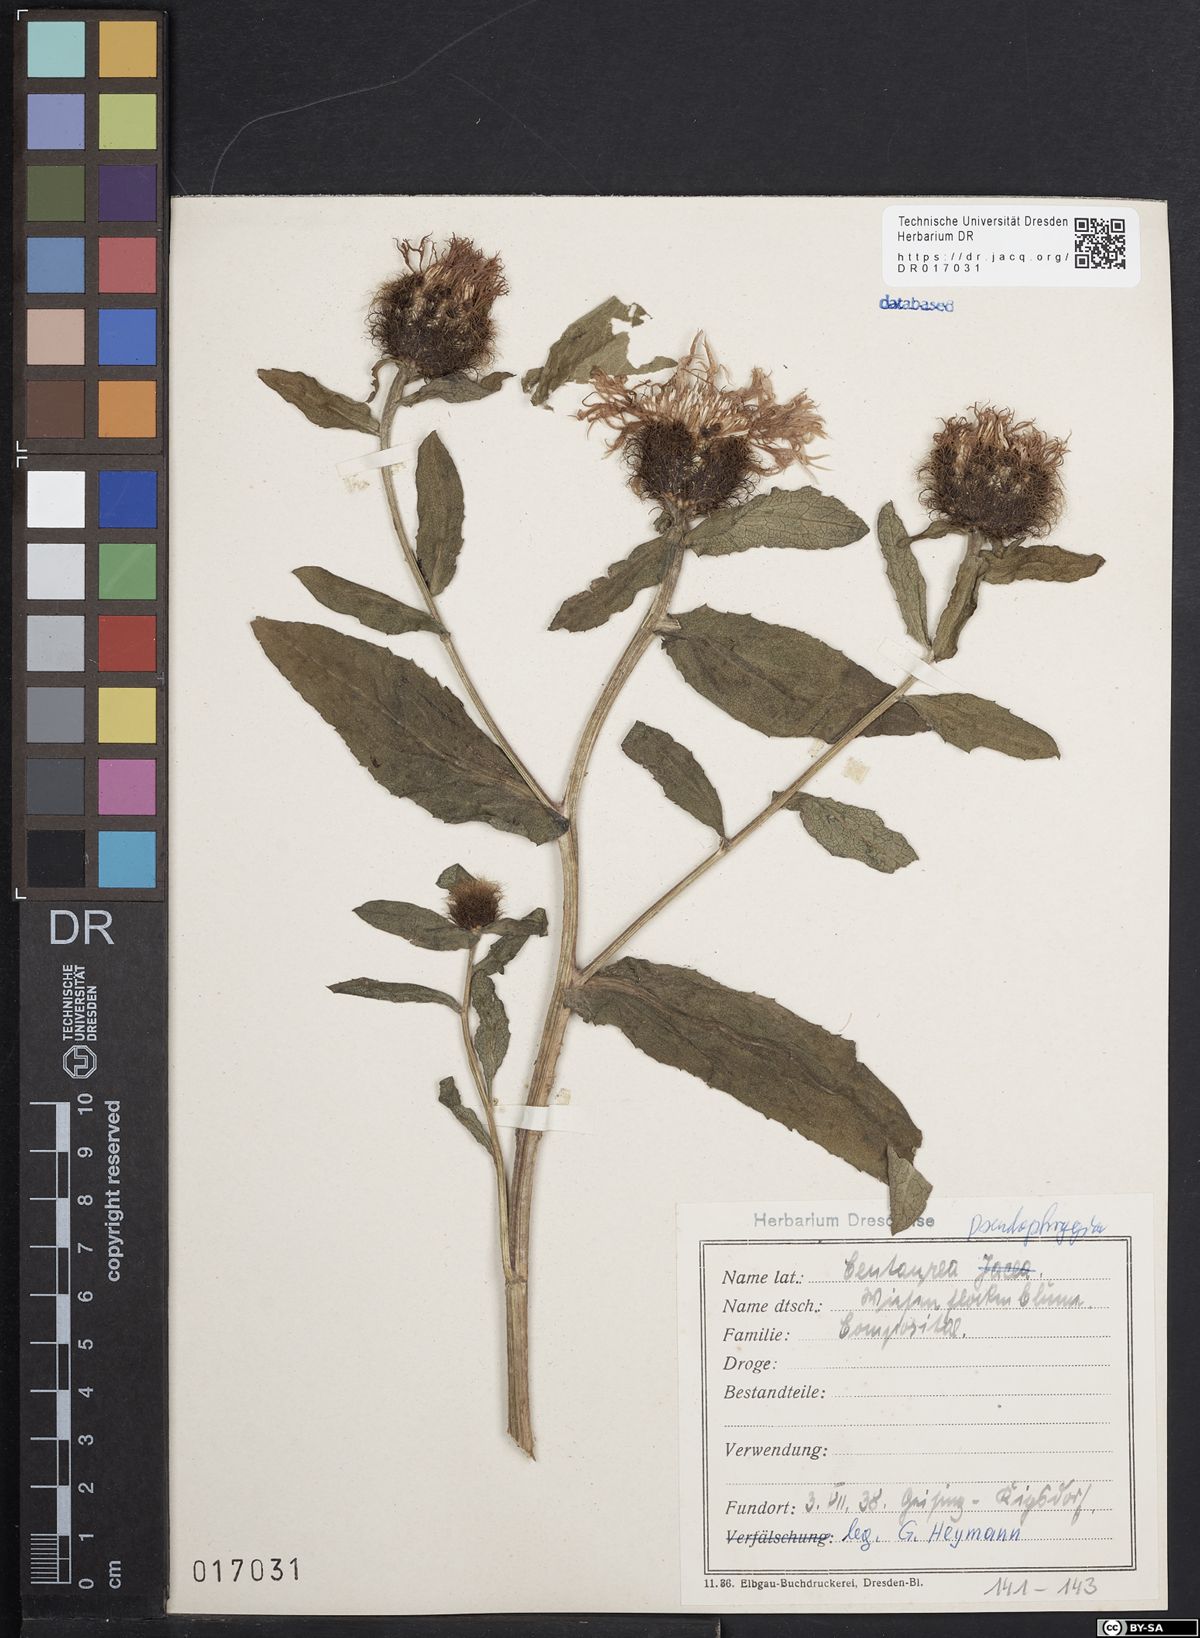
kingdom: Plantae
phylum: Tracheophyta
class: Magnoliopsida
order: Asterales
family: Asteraceae
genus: Centaurea
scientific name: Centaurea pseudophrygia
